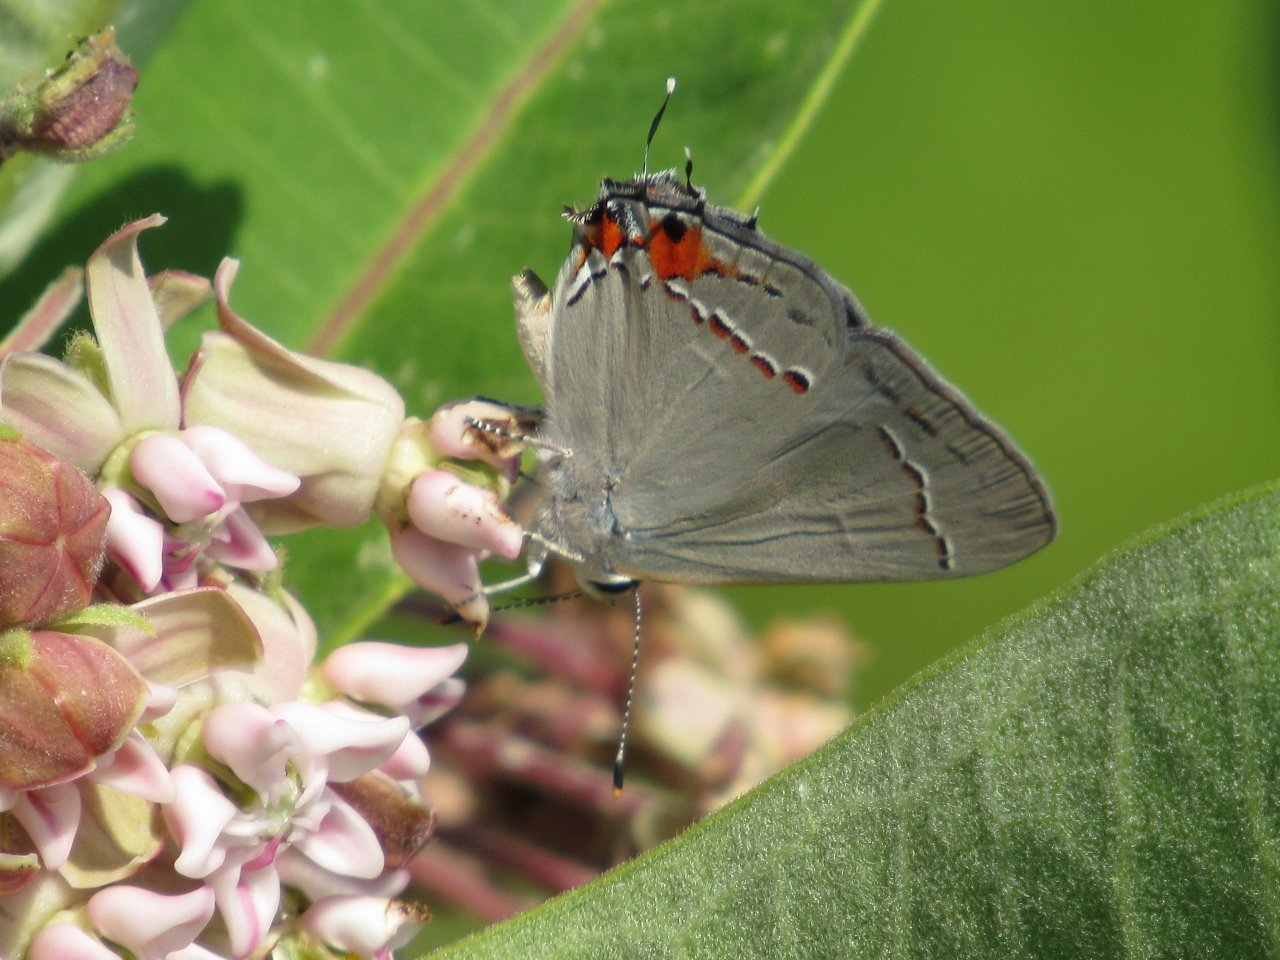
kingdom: Animalia
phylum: Arthropoda
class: Insecta
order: Lepidoptera
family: Lycaenidae
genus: Strymon
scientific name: Strymon melinus
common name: Gray Hairstreak
